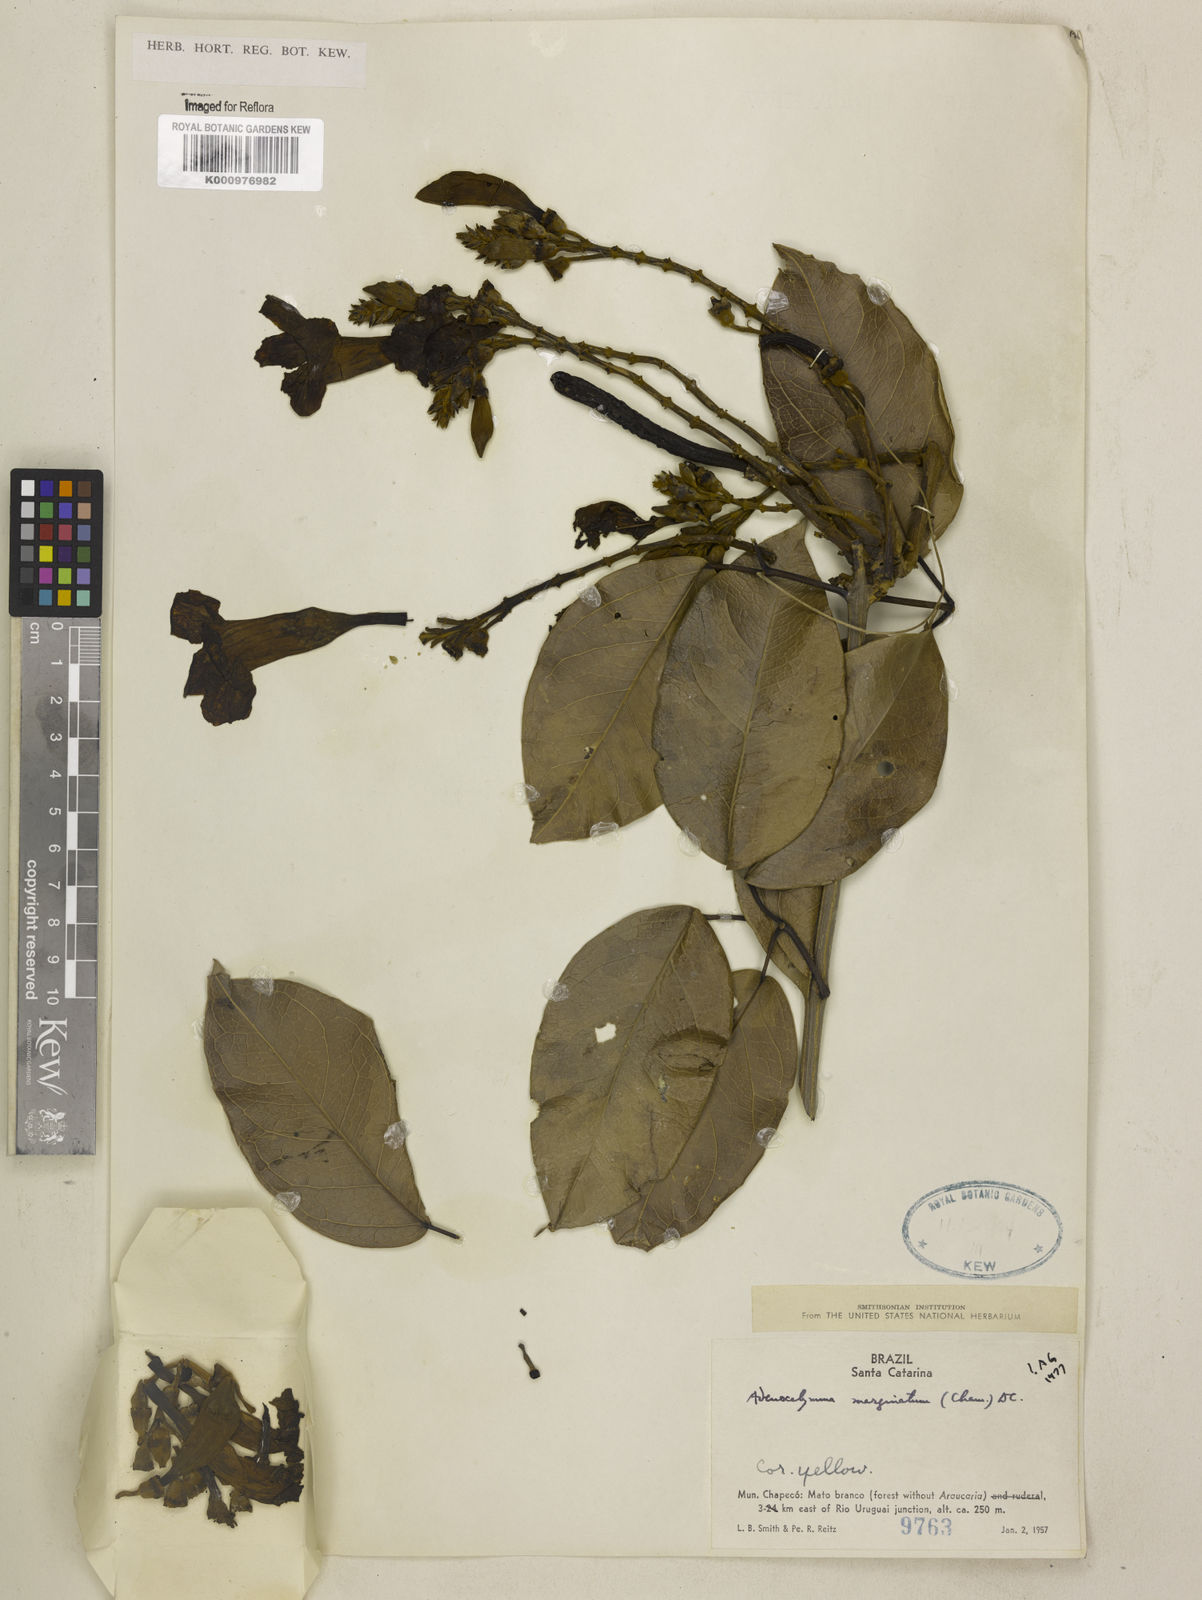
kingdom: Plantae
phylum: Tracheophyta
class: Magnoliopsida
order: Lamiales
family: Bignoniaceae
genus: Adenocalymma
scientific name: Adenocalymma marginatum
